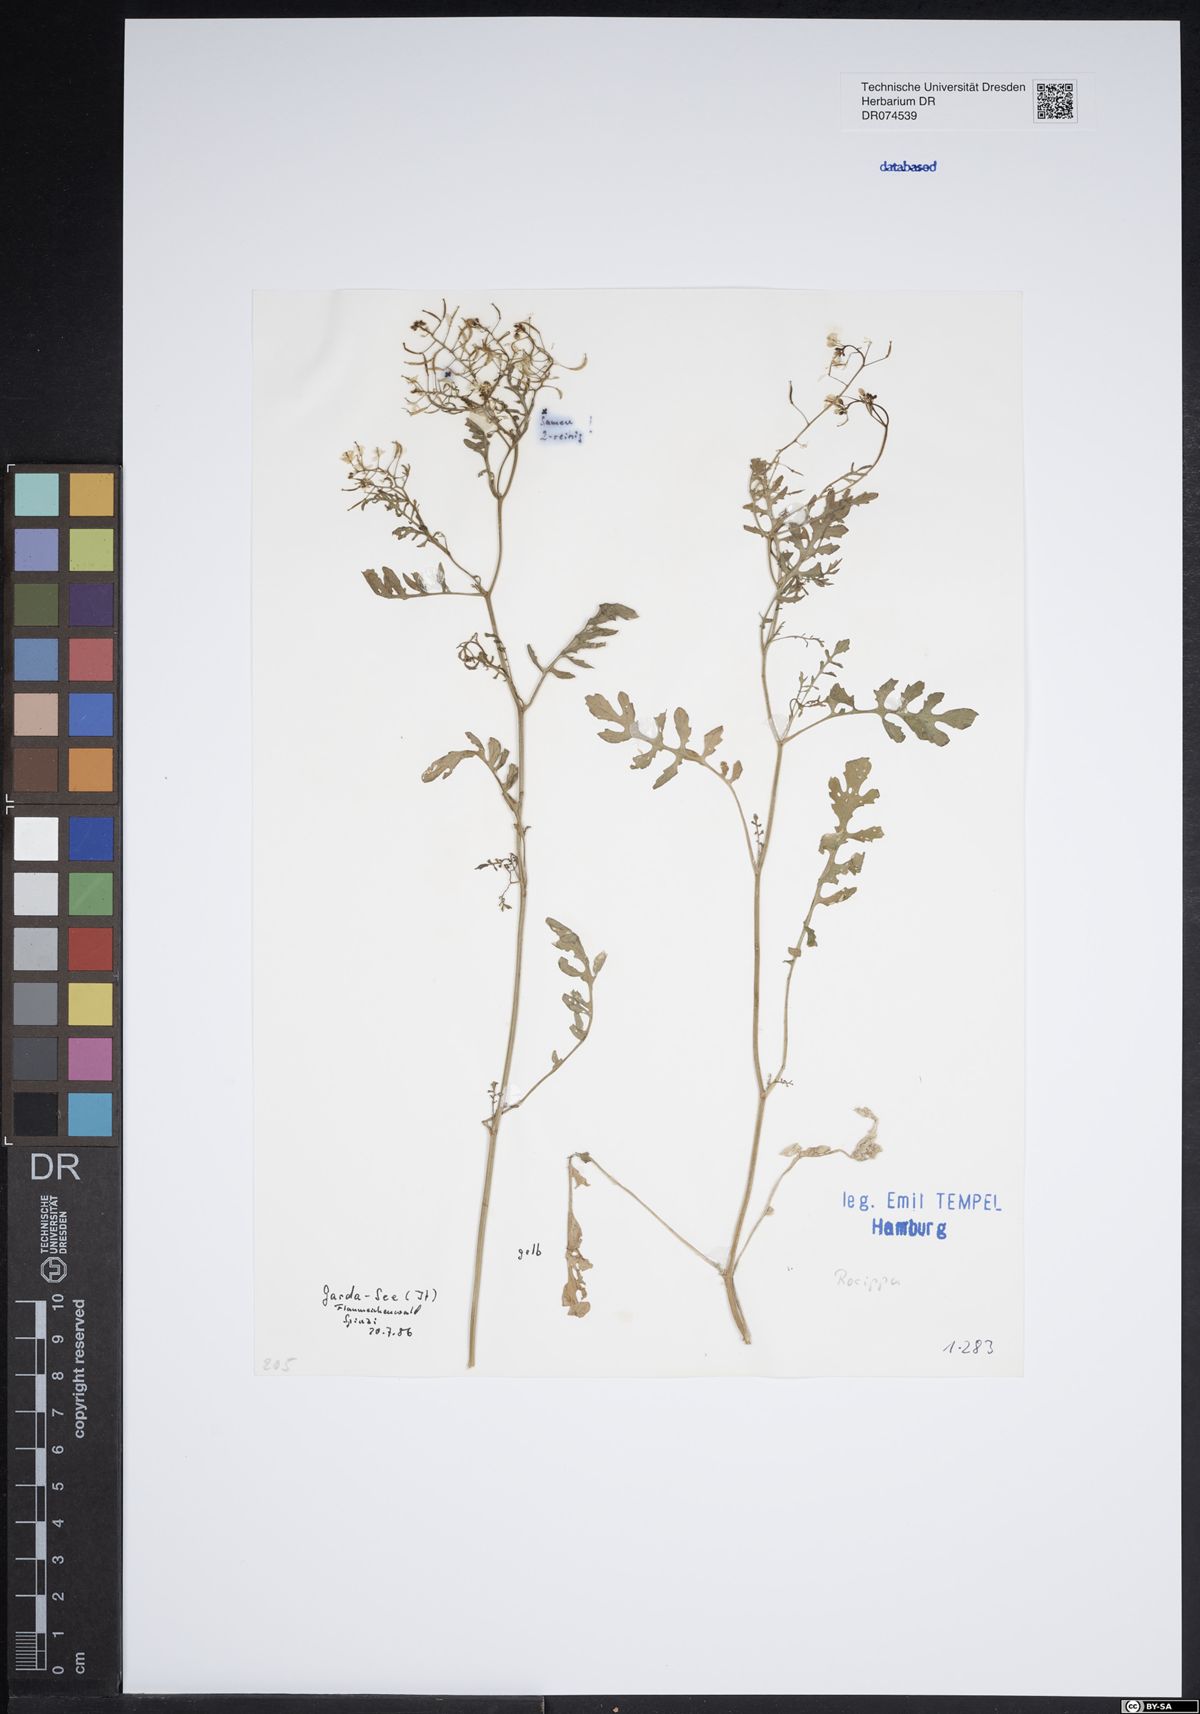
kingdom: Plantae
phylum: Tracheophyta
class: Magnoliopsida
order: Brassicales
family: Brassicaceae
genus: Rorippa
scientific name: Rorippa
